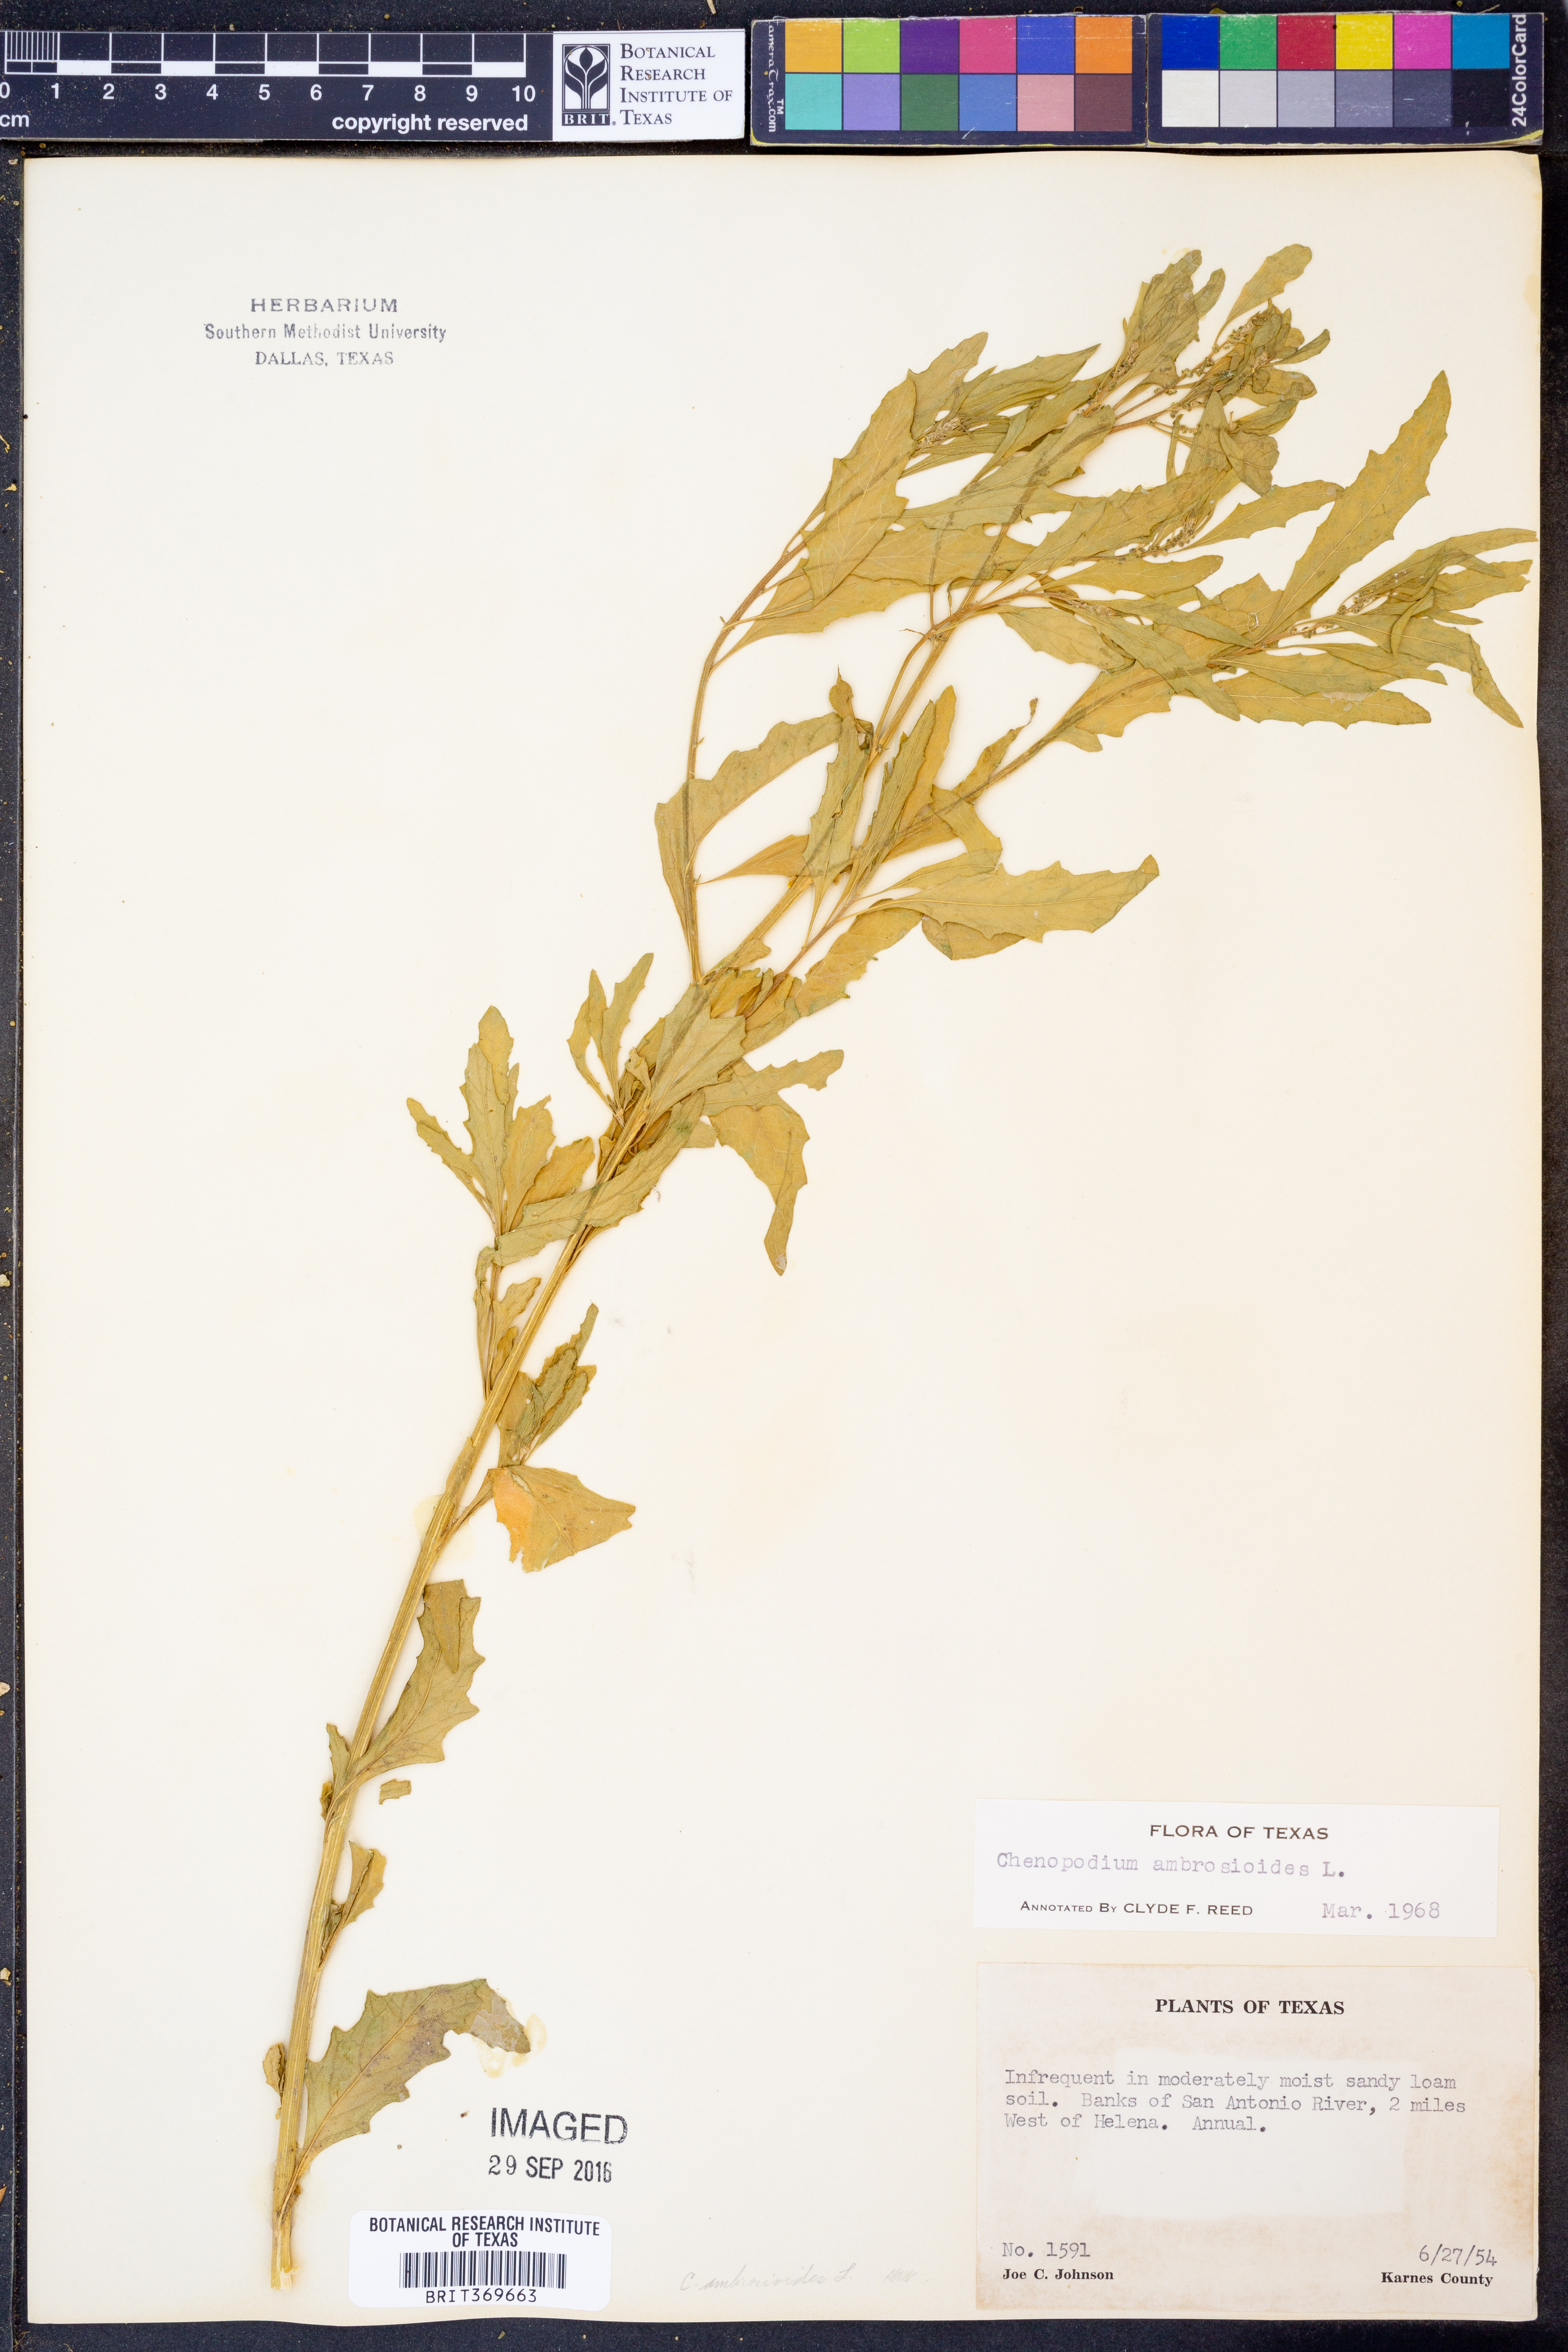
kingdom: Plantae
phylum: Tracheophyta
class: Magnoliopsida
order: Caryophyllales
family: Amaranthaceae
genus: Dysphania
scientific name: Dysphania ambrosioides
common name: Wormseed
